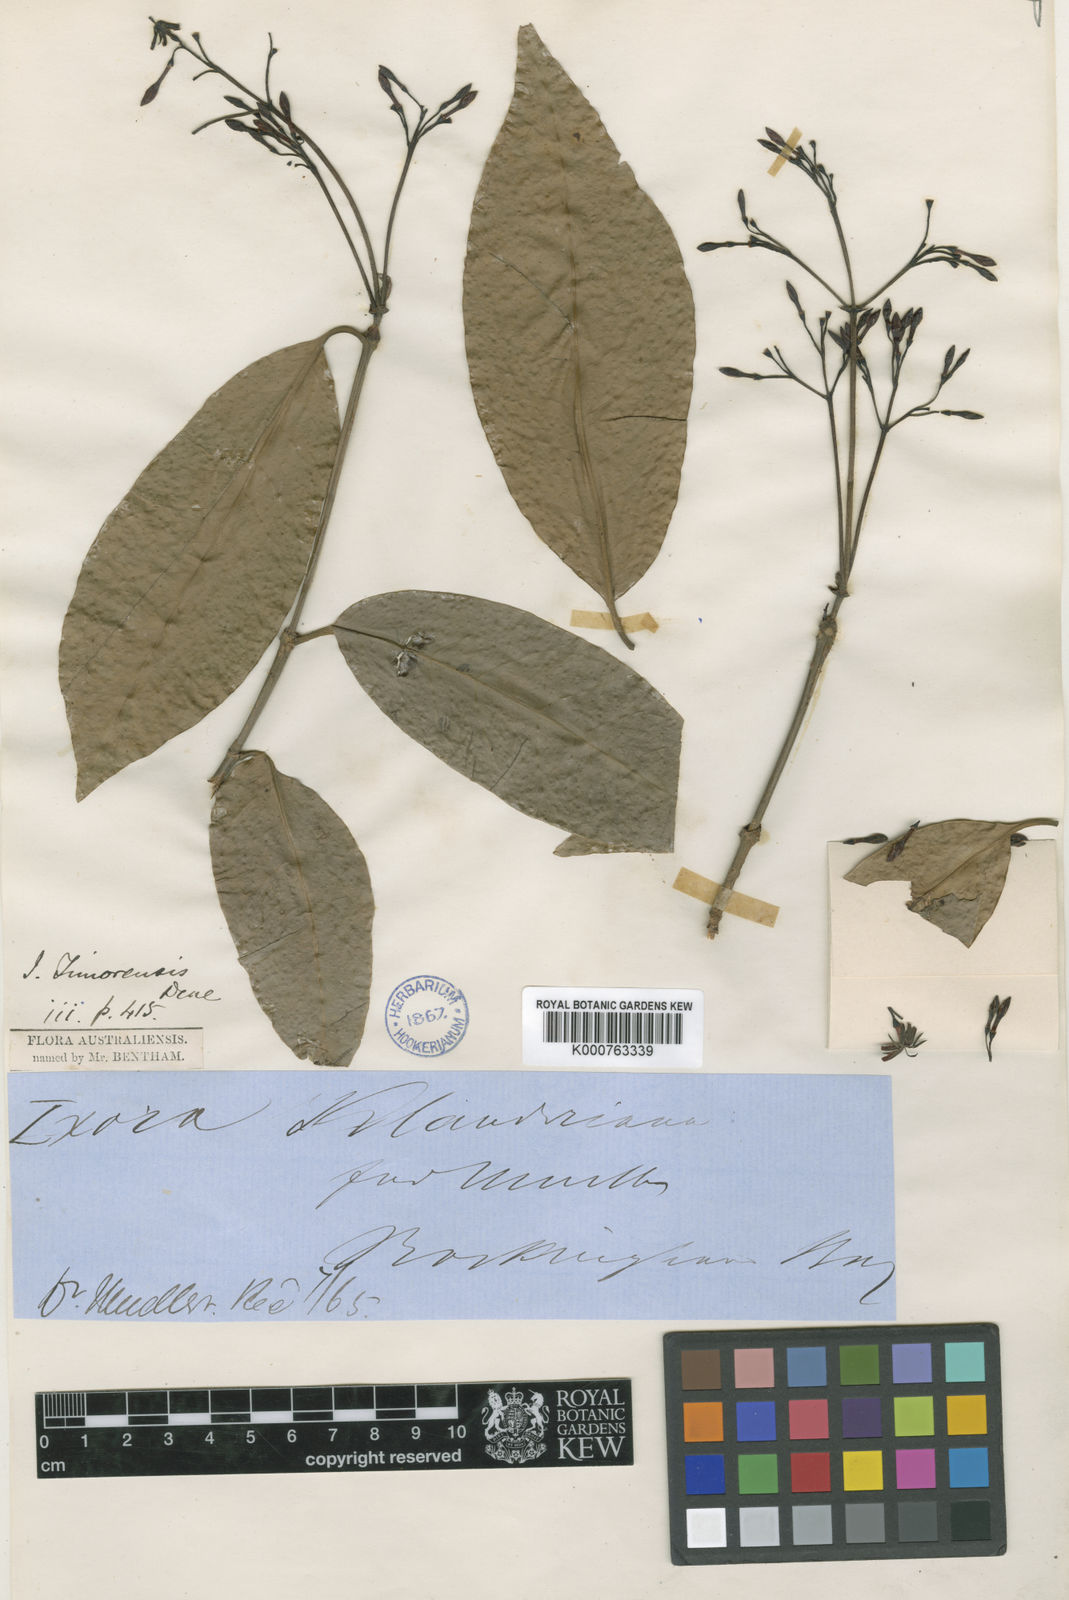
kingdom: Plantae
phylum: Tracheophyta
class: Magnoliopsida
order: Gentianales
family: Rubiaceae
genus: Ixora
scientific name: Ixora timorensis
